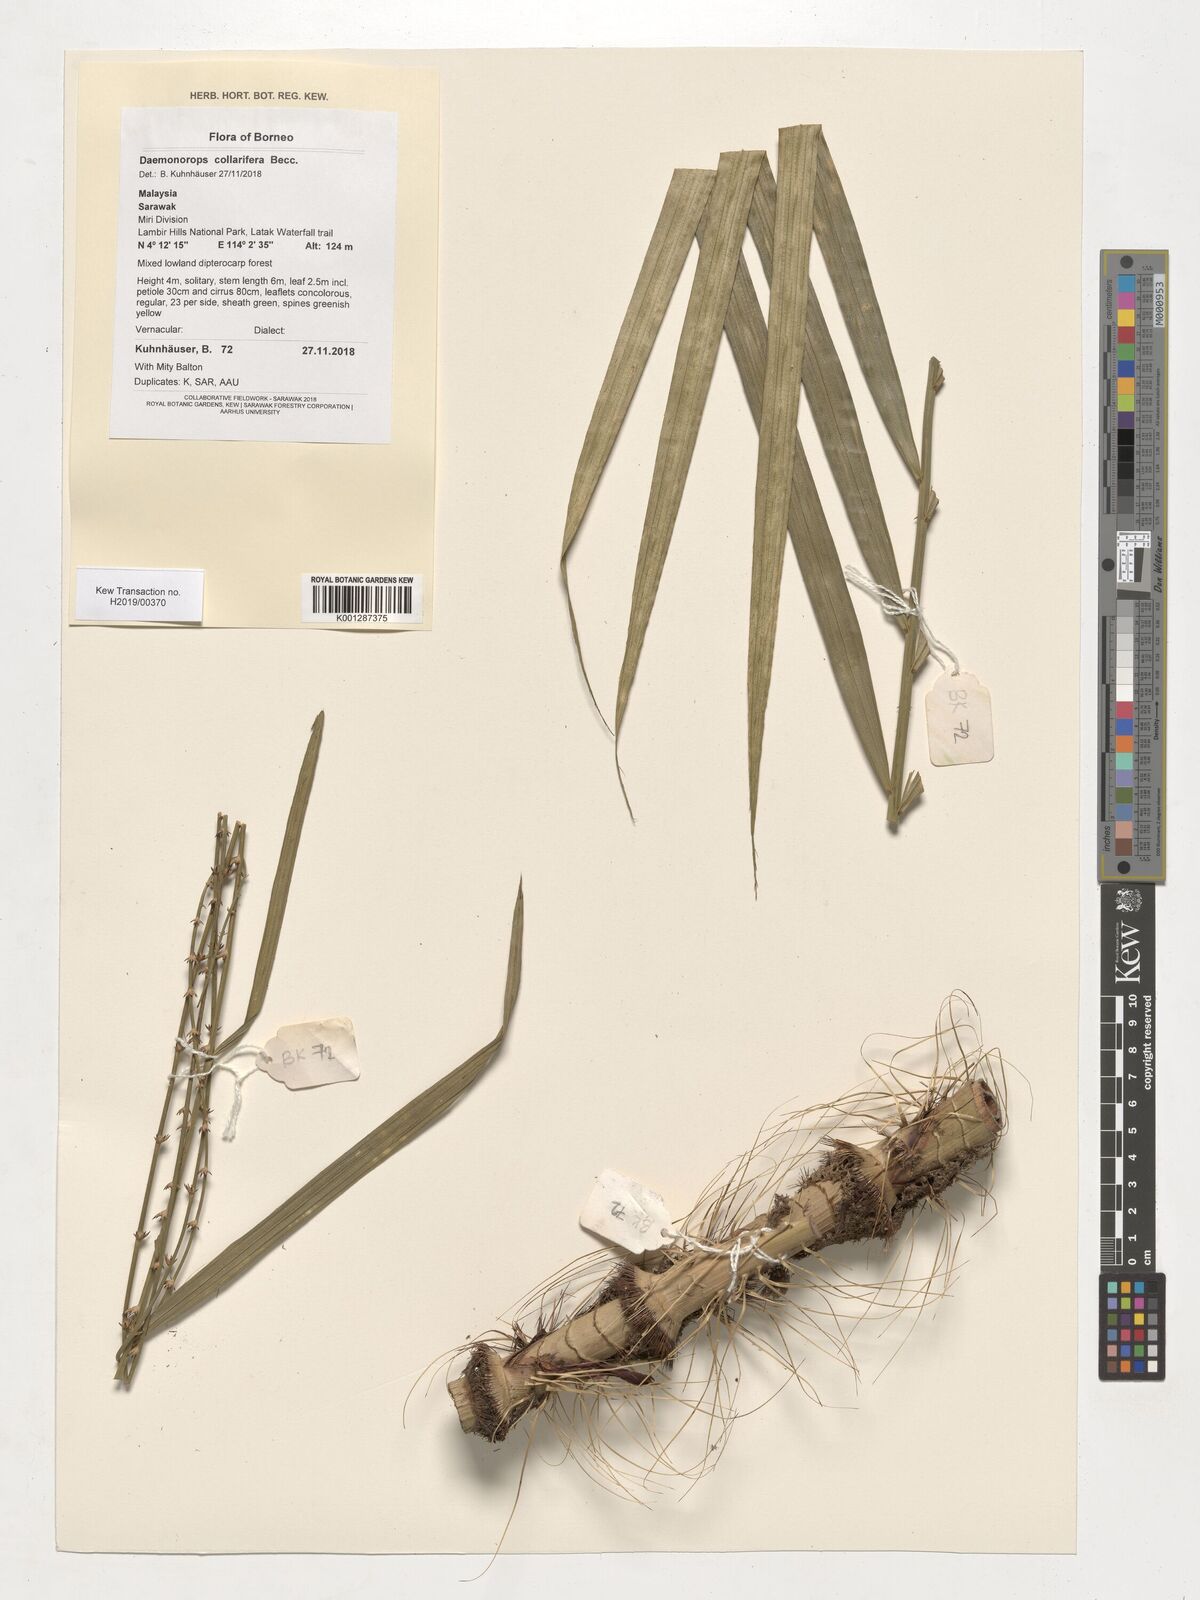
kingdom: Plantae
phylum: Tracheophyta
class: Liliopsida
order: Arecales
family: Arecaceae
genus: Calamus
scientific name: Calamus geniculatus
